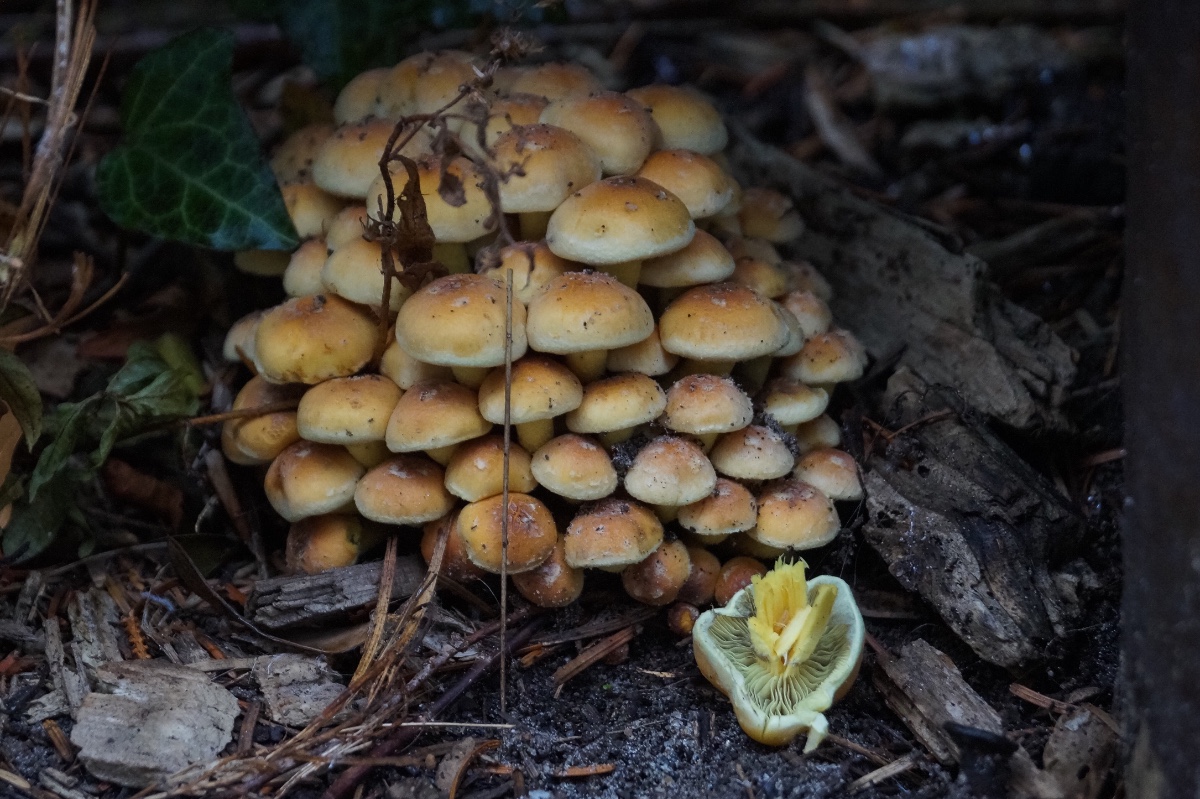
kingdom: Fungi
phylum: Basidiomycota
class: Agaricomycetes
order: Agaricales
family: Strophariaceae
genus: Hypholoma
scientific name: Hypholoma fasciculare
